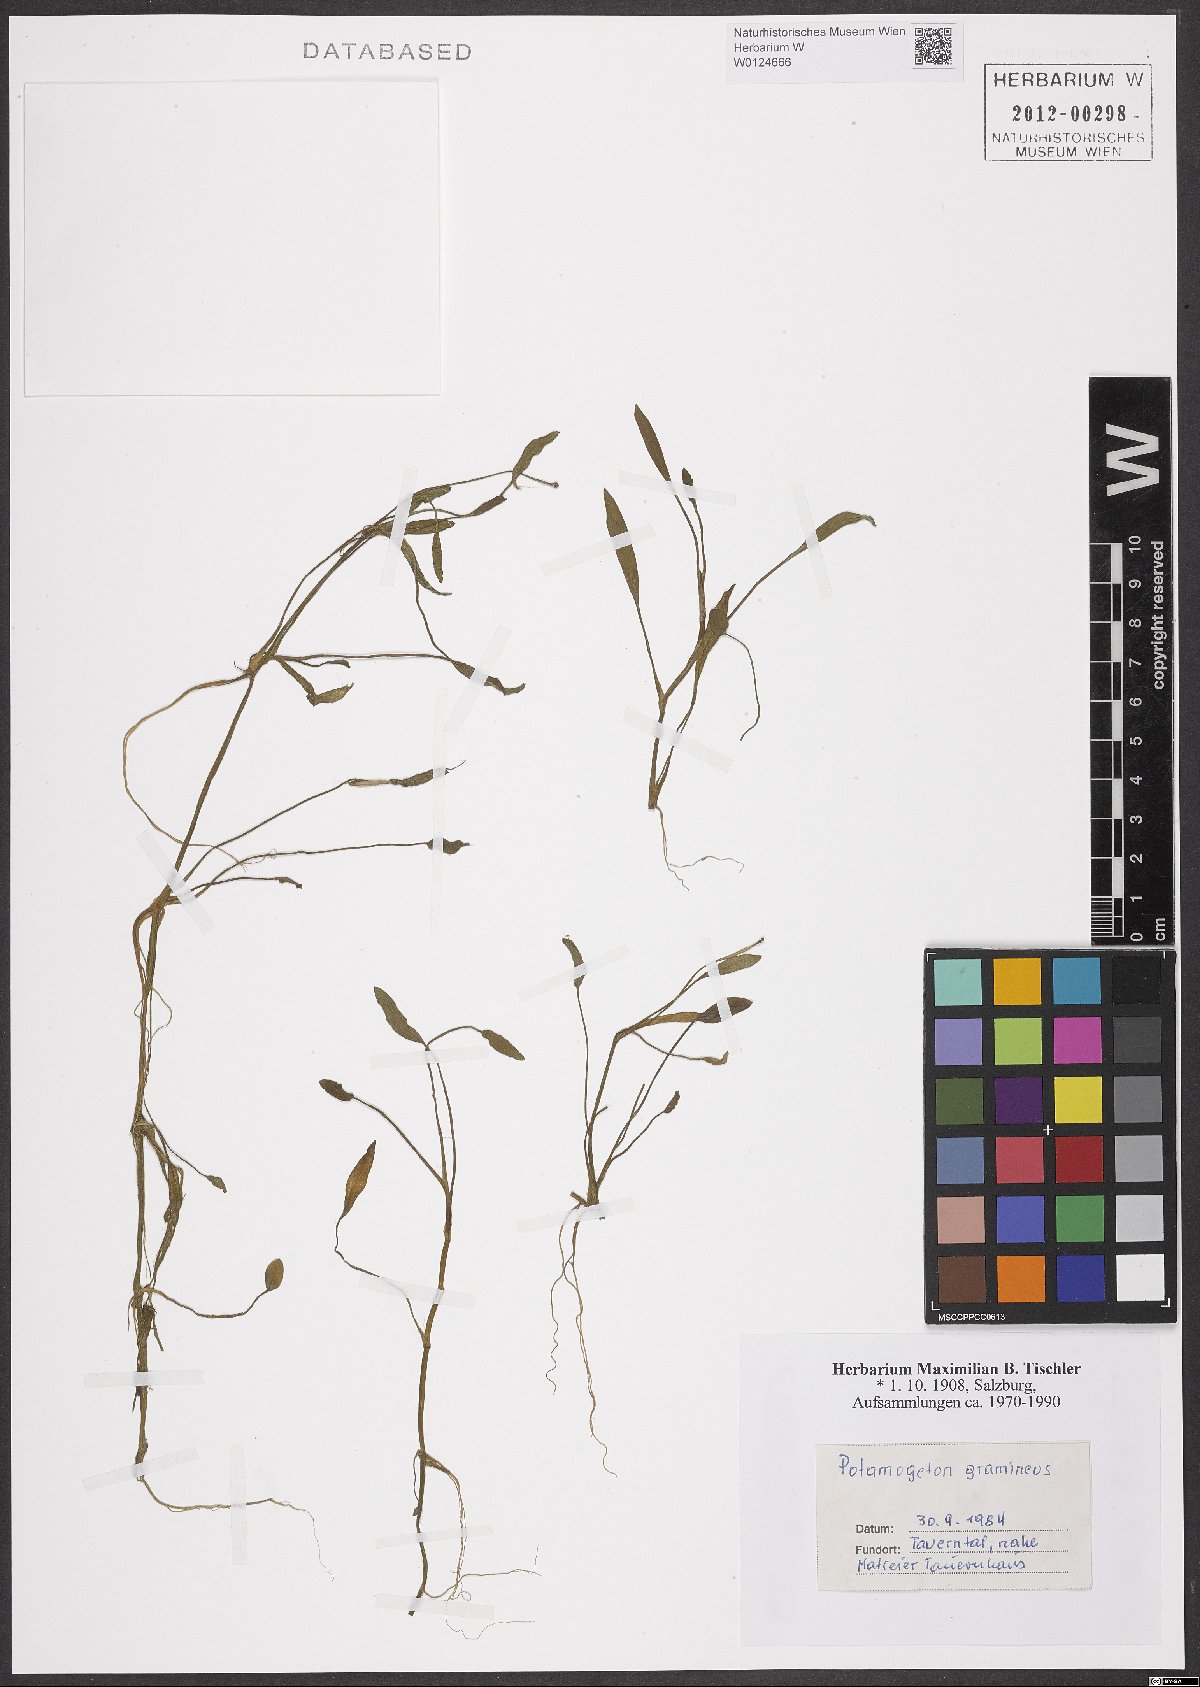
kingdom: Plantae
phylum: Tracheophyta
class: Liliopsida
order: Alismatales
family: Potamogetonaceae
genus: Potamogeton
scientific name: Potamogeton gramineus
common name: Various-leaved pondweed
